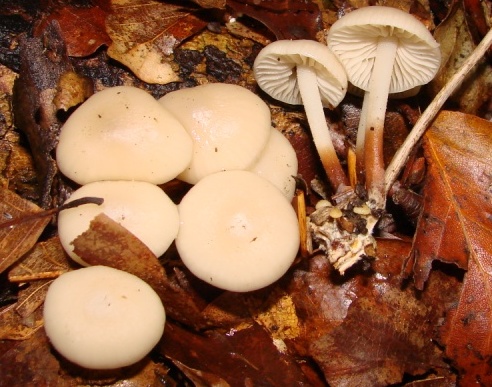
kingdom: Fungi
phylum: Basidiomycota
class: Agaricomycetes
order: Agaricales
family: Marasmiaceae
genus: Marasmius
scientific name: Marasmius wynneae
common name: hvælvet bruskhat
